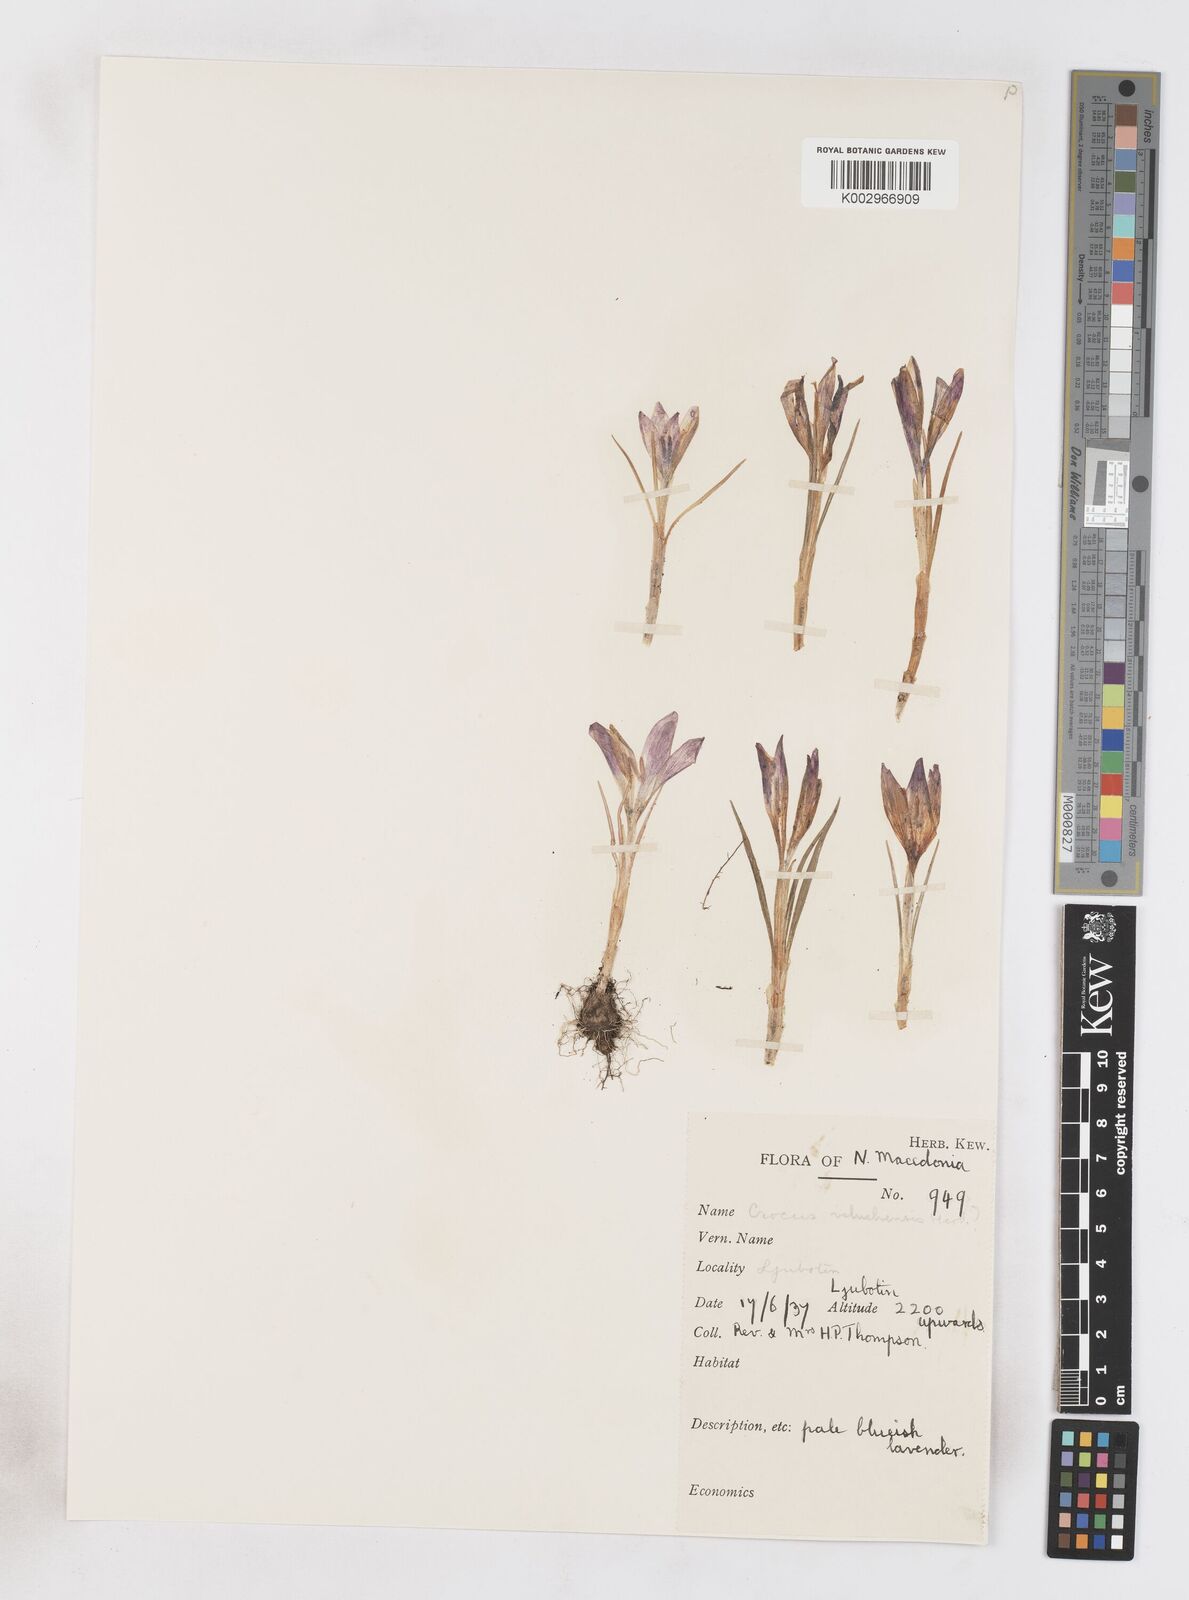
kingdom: Plantae
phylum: Tracheophyta
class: Liliopsida
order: Asparagales
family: Iridaceae
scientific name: Iridaceae
